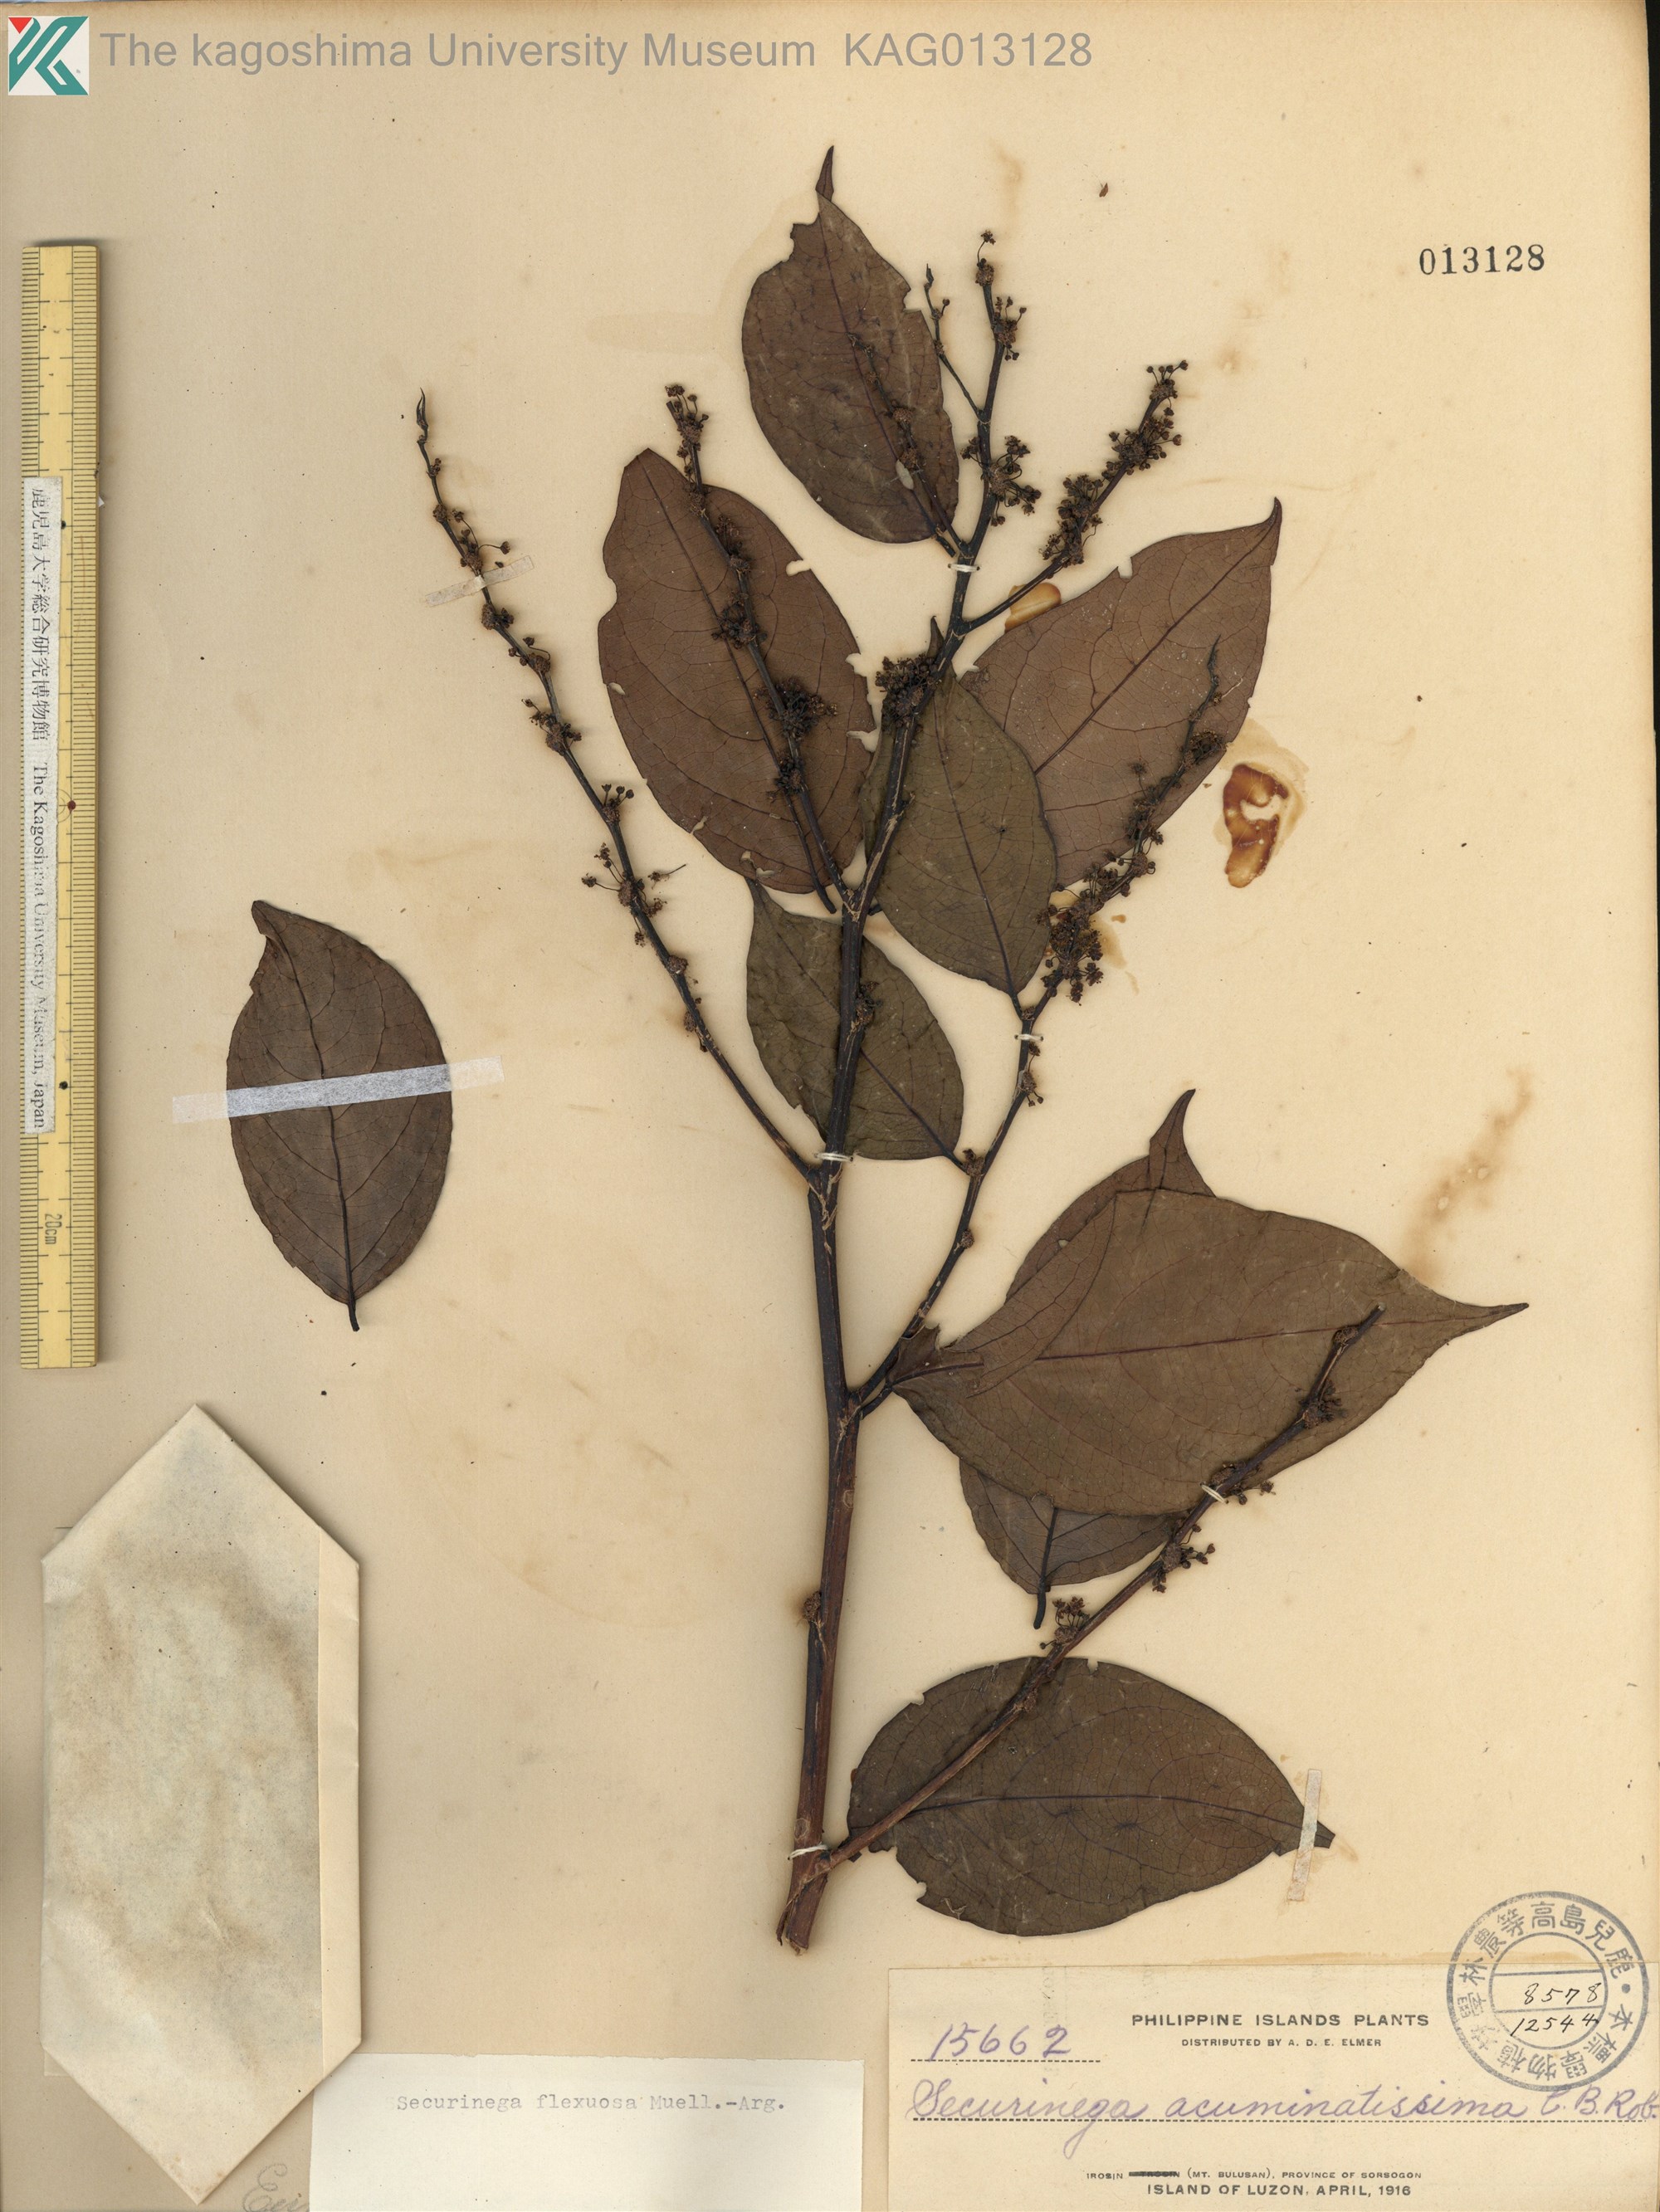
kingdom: Plantae
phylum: Tracheophyta
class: Magnoliopsida
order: Malpighiales
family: Phyllanthaceae
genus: Flueggea
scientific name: Flueggea flexuosa
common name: Poumuli
